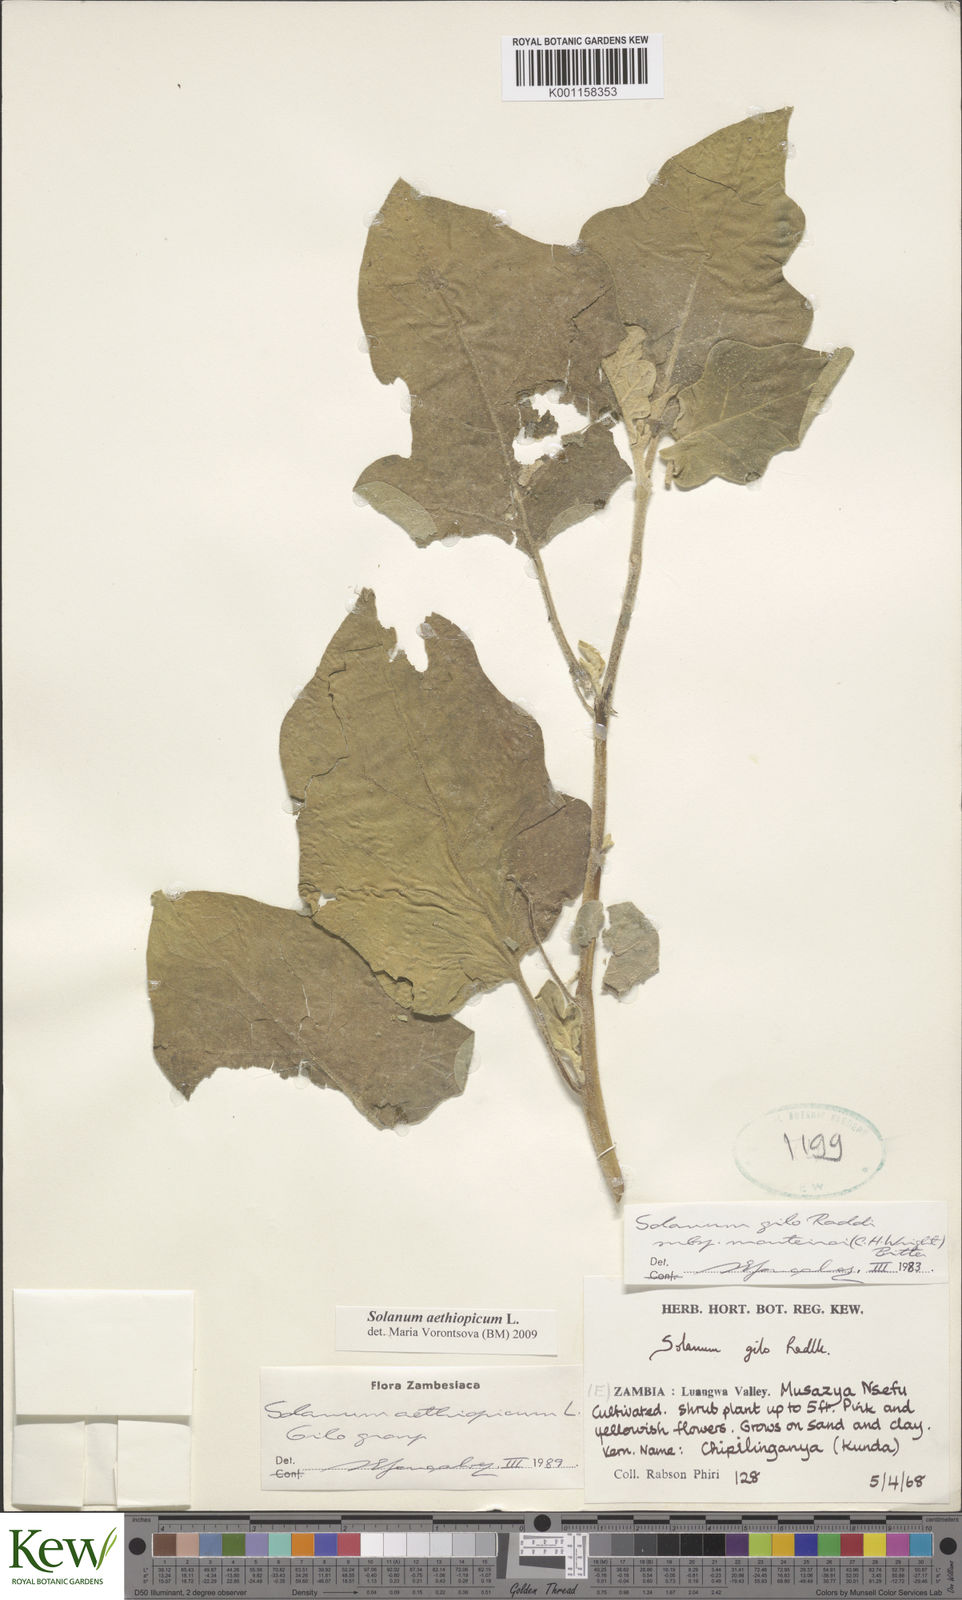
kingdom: Plantae
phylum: Tracheophyta
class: Magnoliopsida
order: Solanales
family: Solanaceae
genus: Solanum
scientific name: Solanum aethiopicum
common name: Gilo
